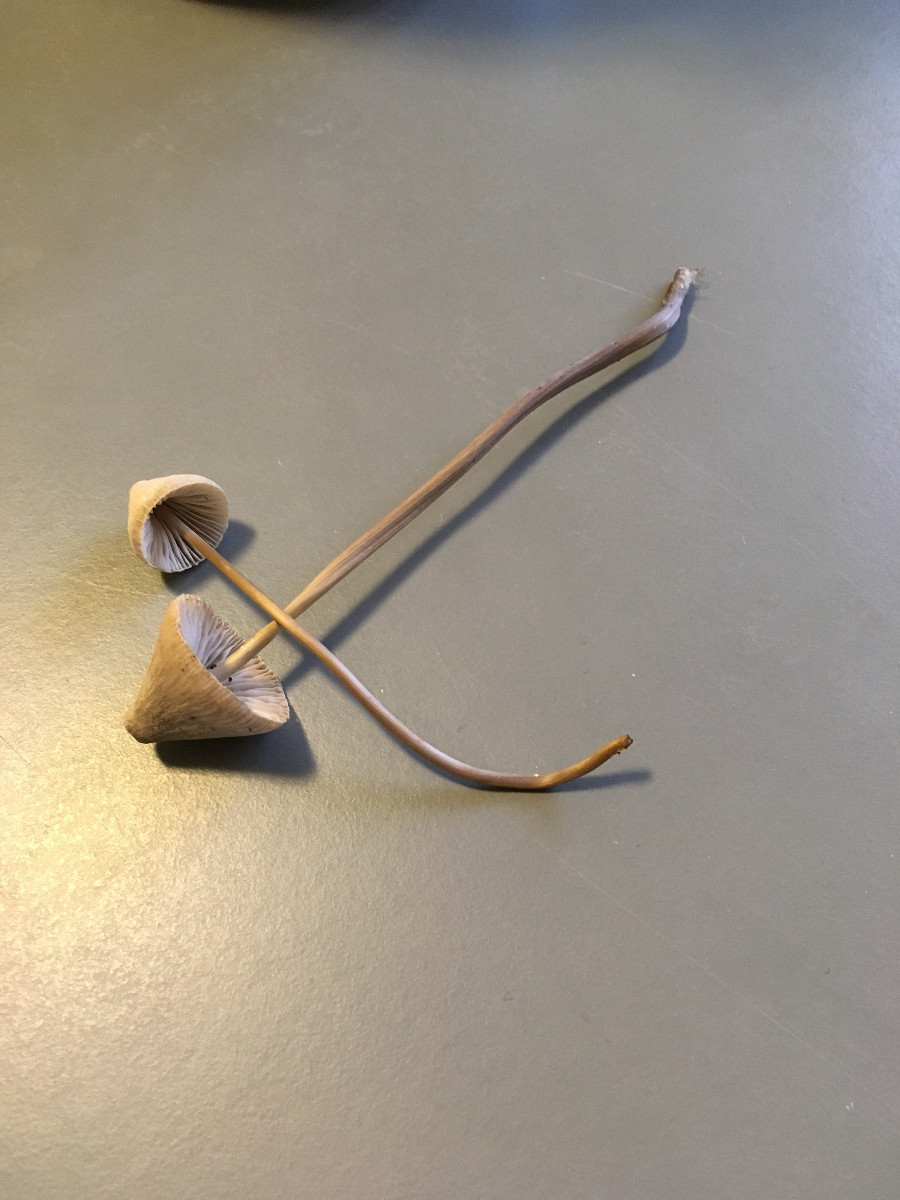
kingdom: Fungi
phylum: Basidiomycota
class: Agaricomycetes
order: Agaricales
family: Mycenaceae
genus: Mycena
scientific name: Mycena
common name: huesvamp
